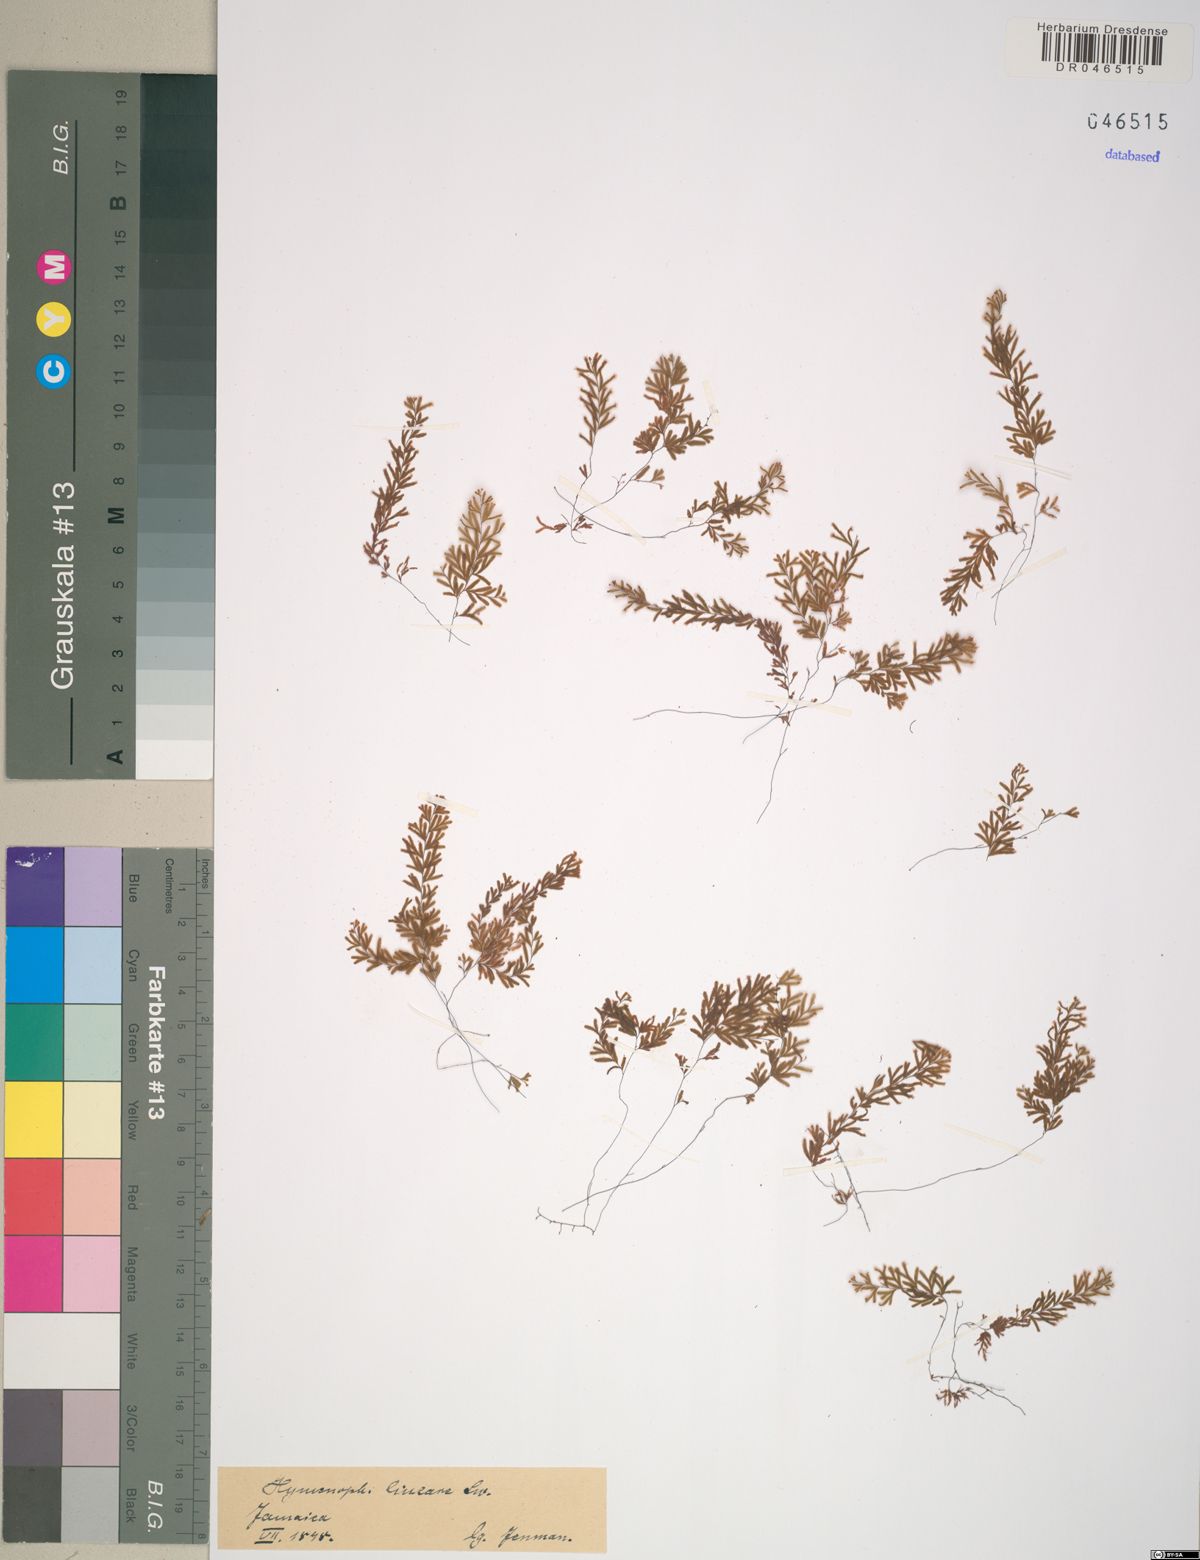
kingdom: Plantae
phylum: Tracheophyta
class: Polypodiopsida
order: Hymenophyllales
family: Hymenophyllaceae
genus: Hymenophyllum
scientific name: Hymenophyllum lineare
